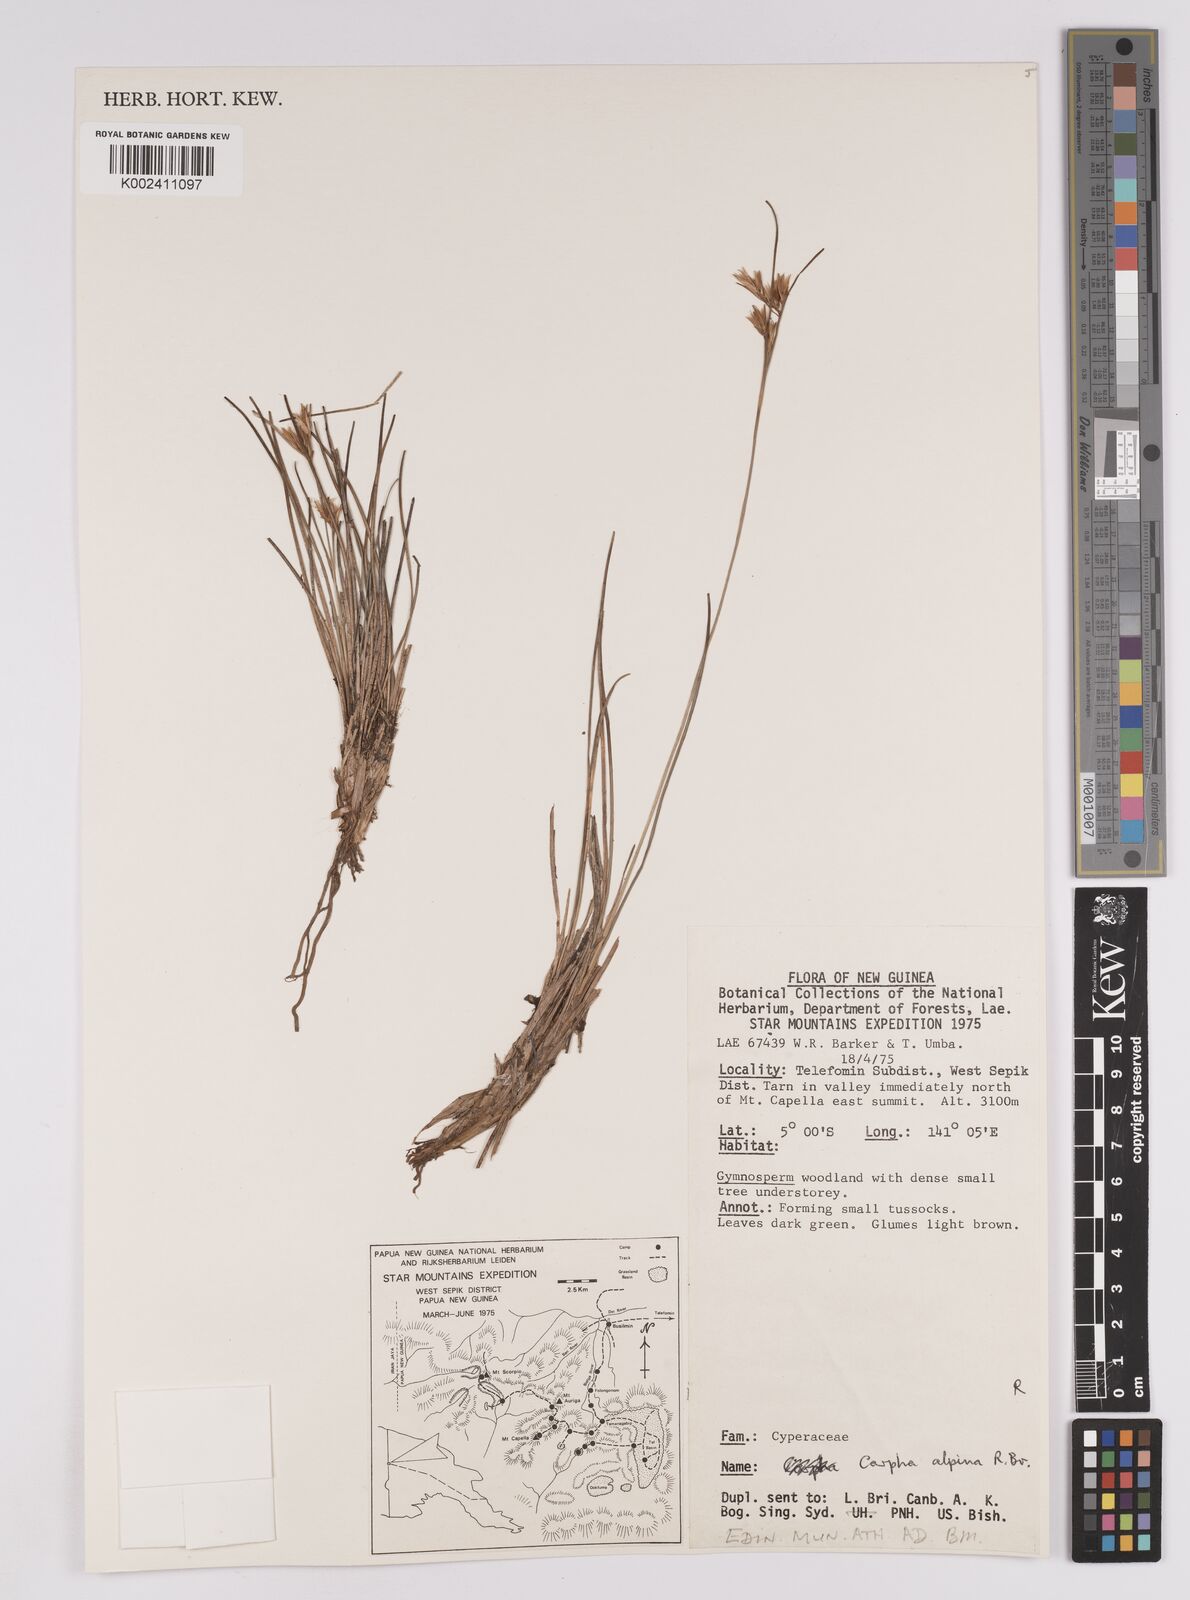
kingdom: Plantae
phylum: Tracheophyta
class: Liliopsida
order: Poales
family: Cyperaceae
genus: Carpha
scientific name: Carpha alpina
